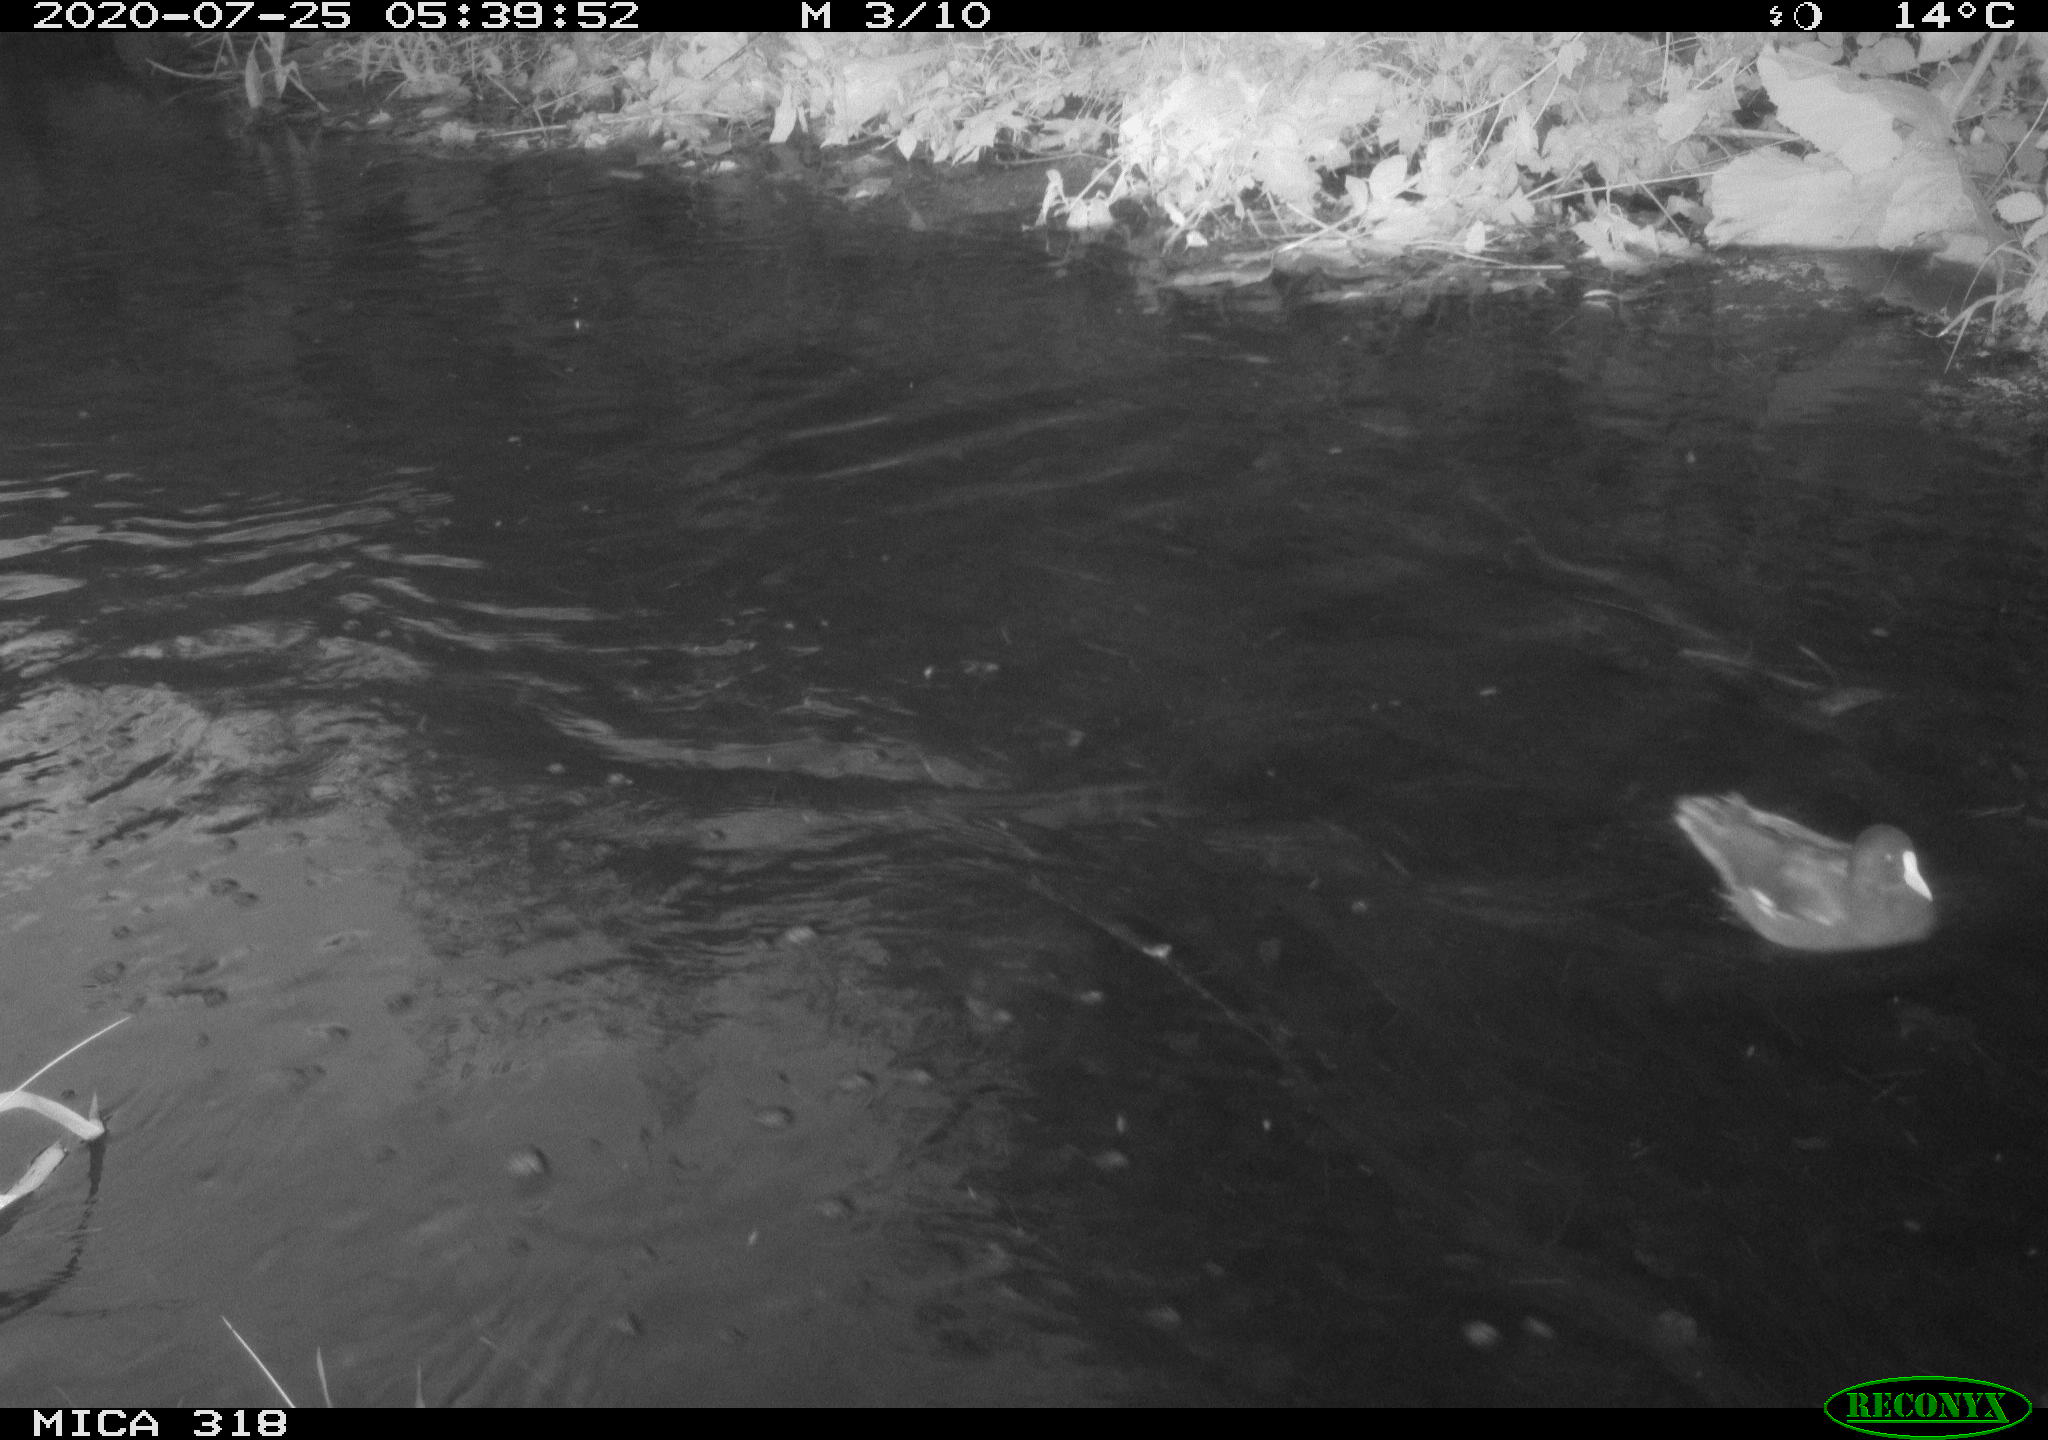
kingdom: Animalia
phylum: Chordata
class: Aves
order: Gruiformes
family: Rallidae
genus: Gallinula
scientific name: Gallinula chloropus
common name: Common moorhen
